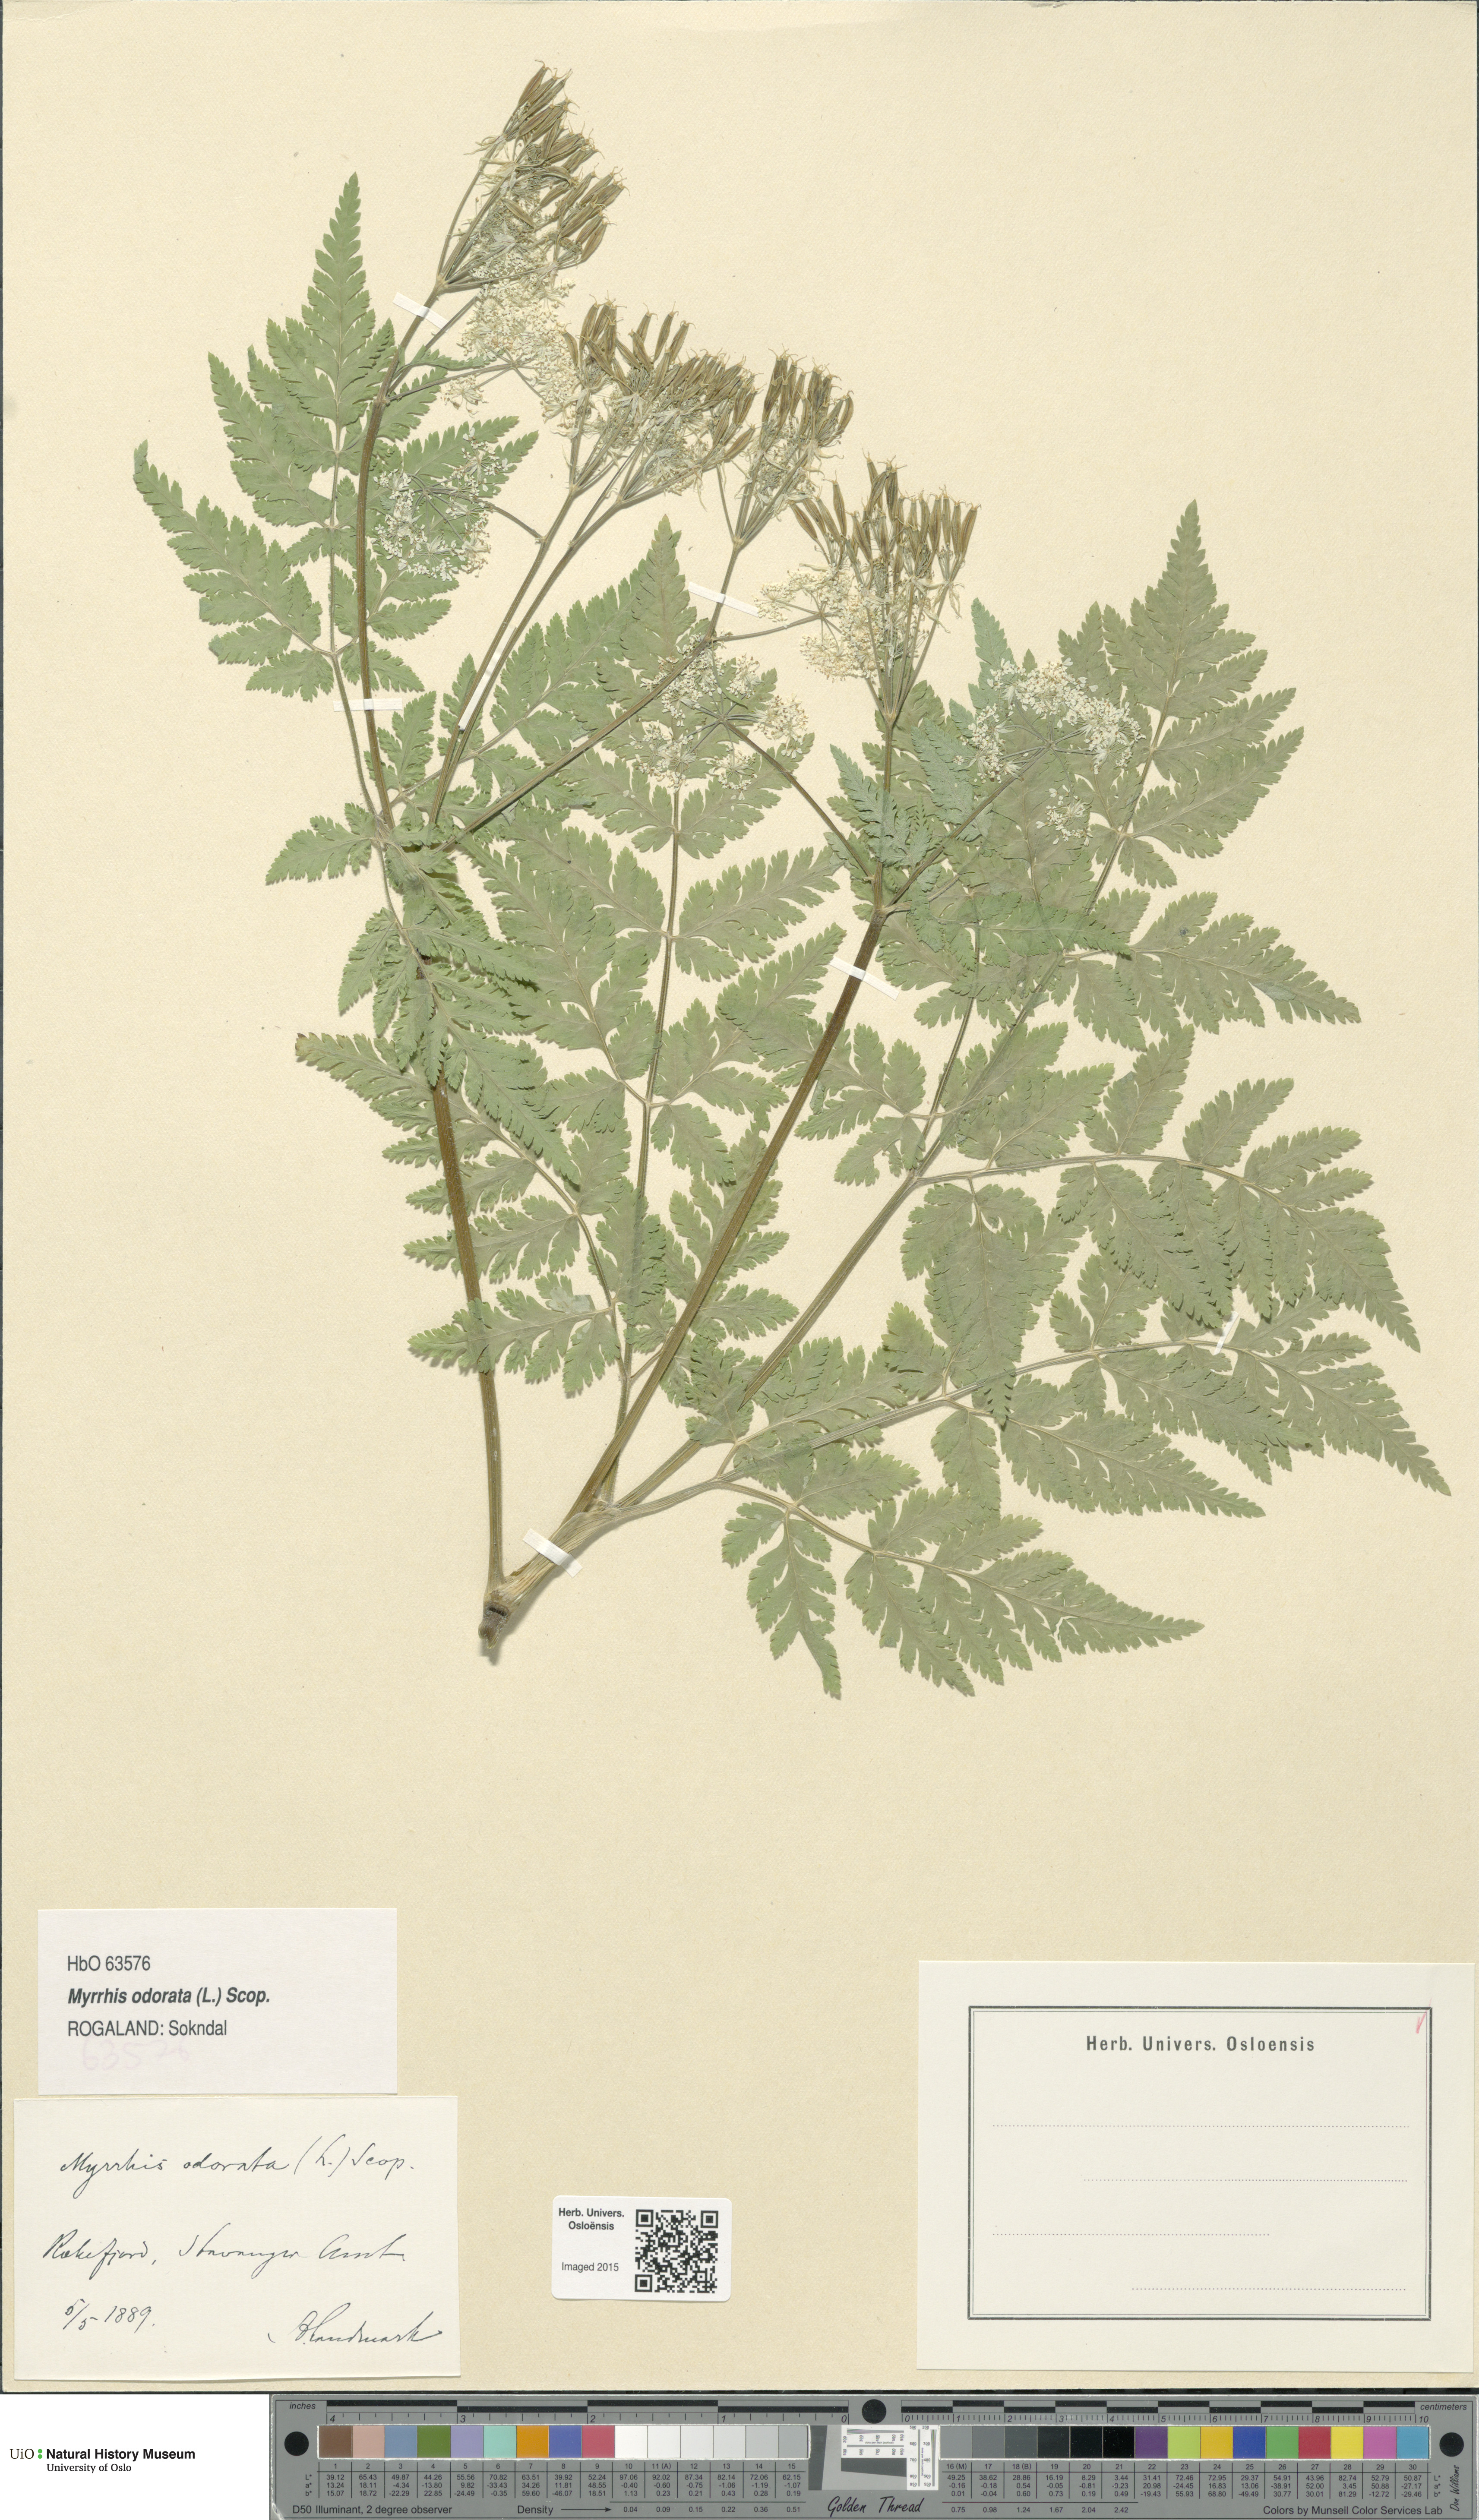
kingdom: Plantae
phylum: Tracheophyta
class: Magnoliopsida
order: Apiales
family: Apiaceae
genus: Myrrhis
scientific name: Myrrhis odorata
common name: Sweet cicely
